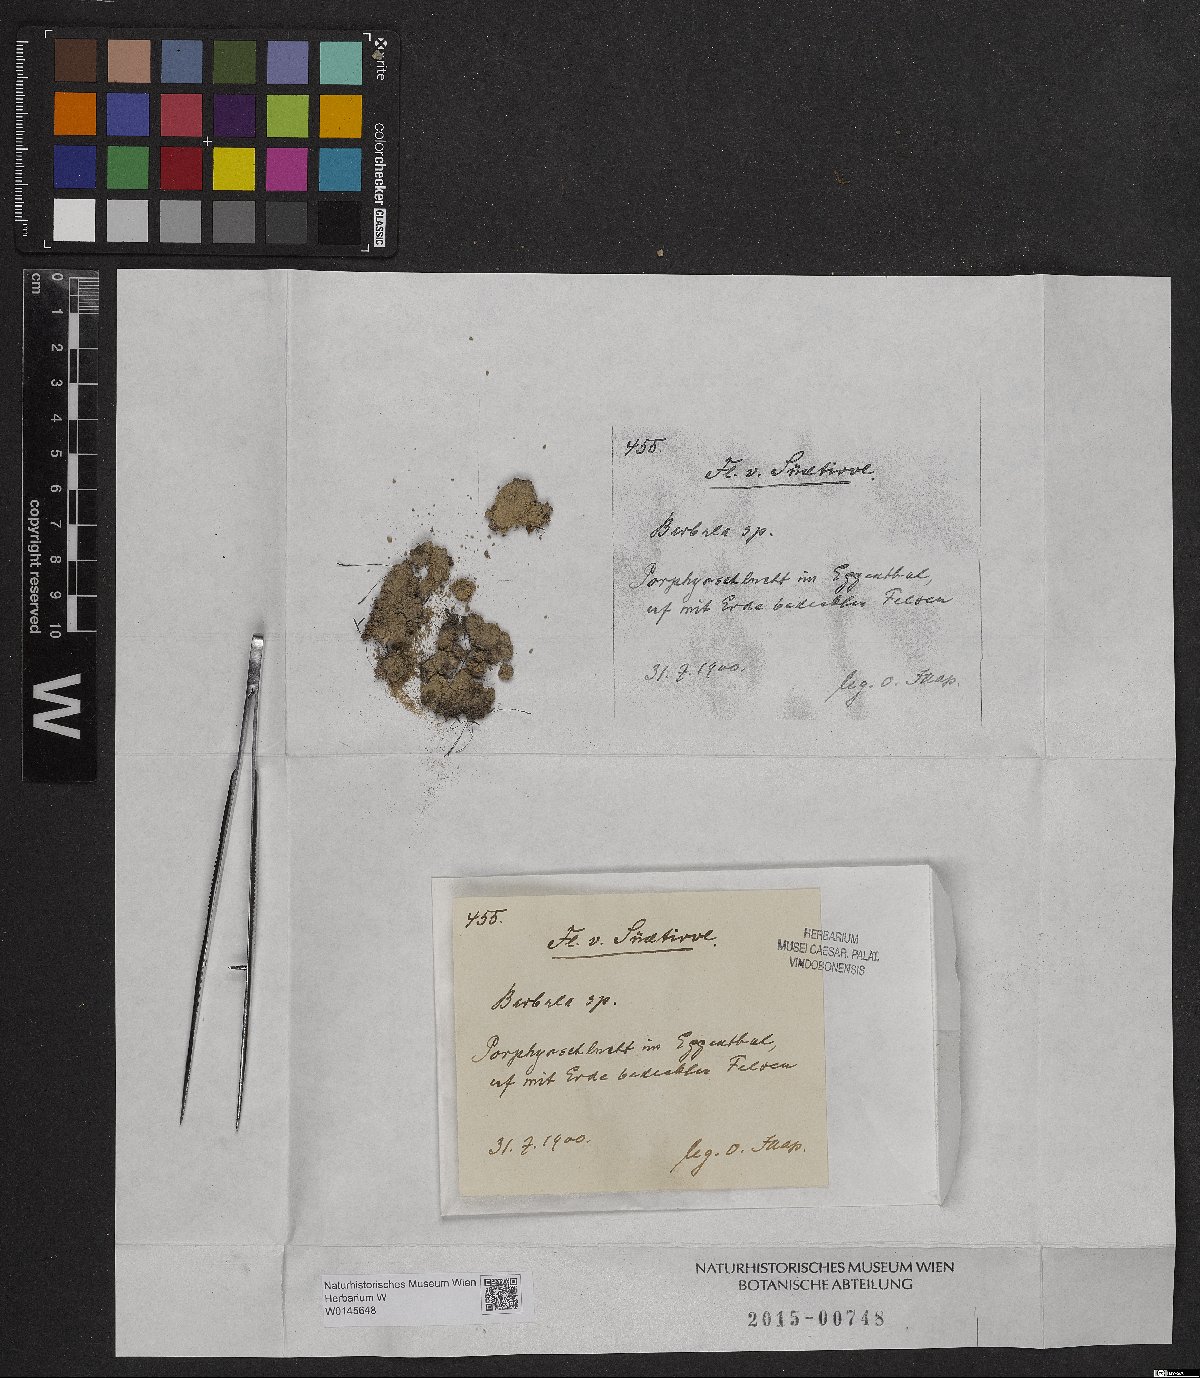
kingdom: Plantae
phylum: Bryophyta
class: Bryopsida
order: Pottiales
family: Pottiaceae
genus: Barbula
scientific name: Barbula
